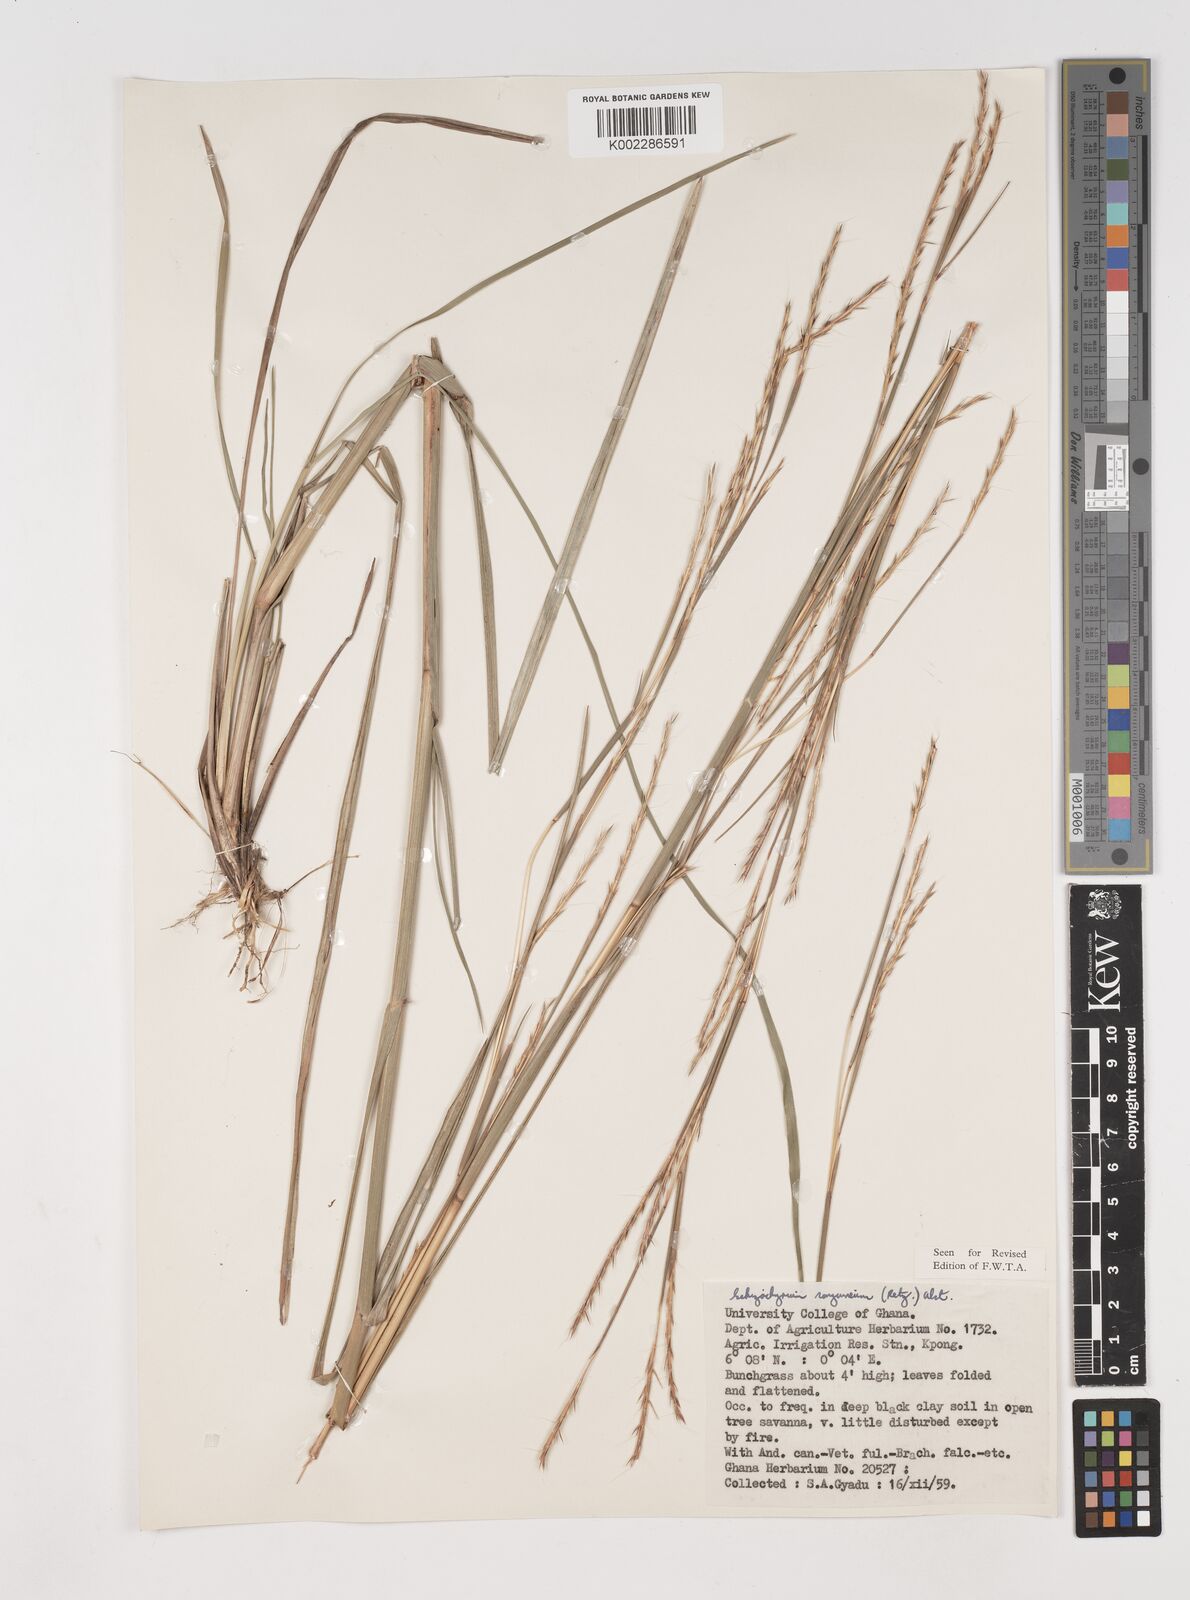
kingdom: Plantae
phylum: Tracheophyta
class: Liliopsida
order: Poales
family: Poaceae
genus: Schizachyrium
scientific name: Schizachyrium sanguineum
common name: Crimson bluestem
